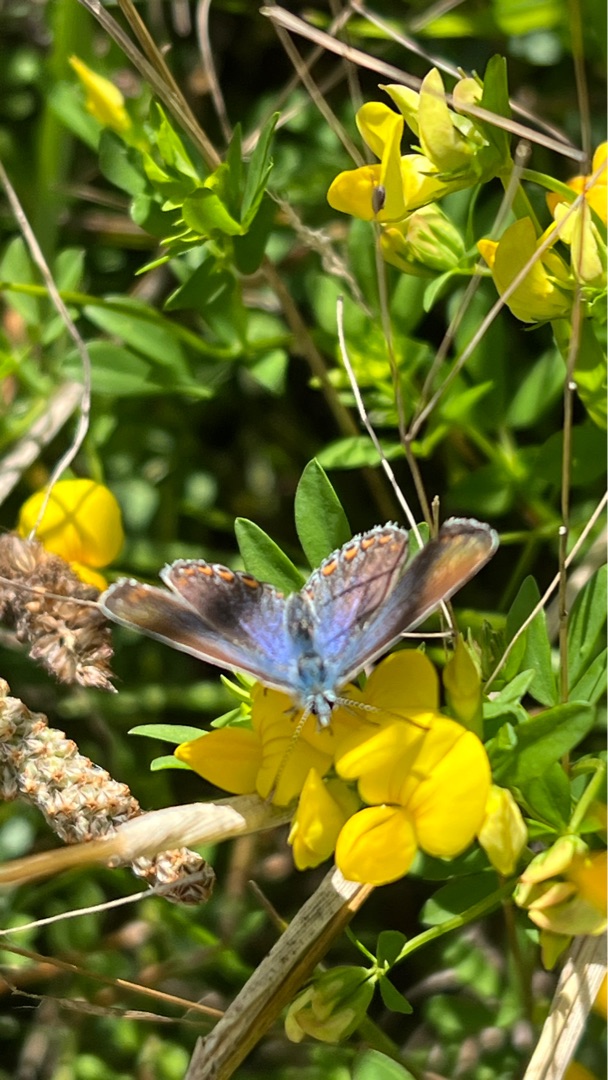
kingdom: Animalia
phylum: Arthropoda
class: Insecta
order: Lepidoptera
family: Lycaenidae
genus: Polyommatus
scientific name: Polyommatus icarus
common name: Almindelig blåfugl
